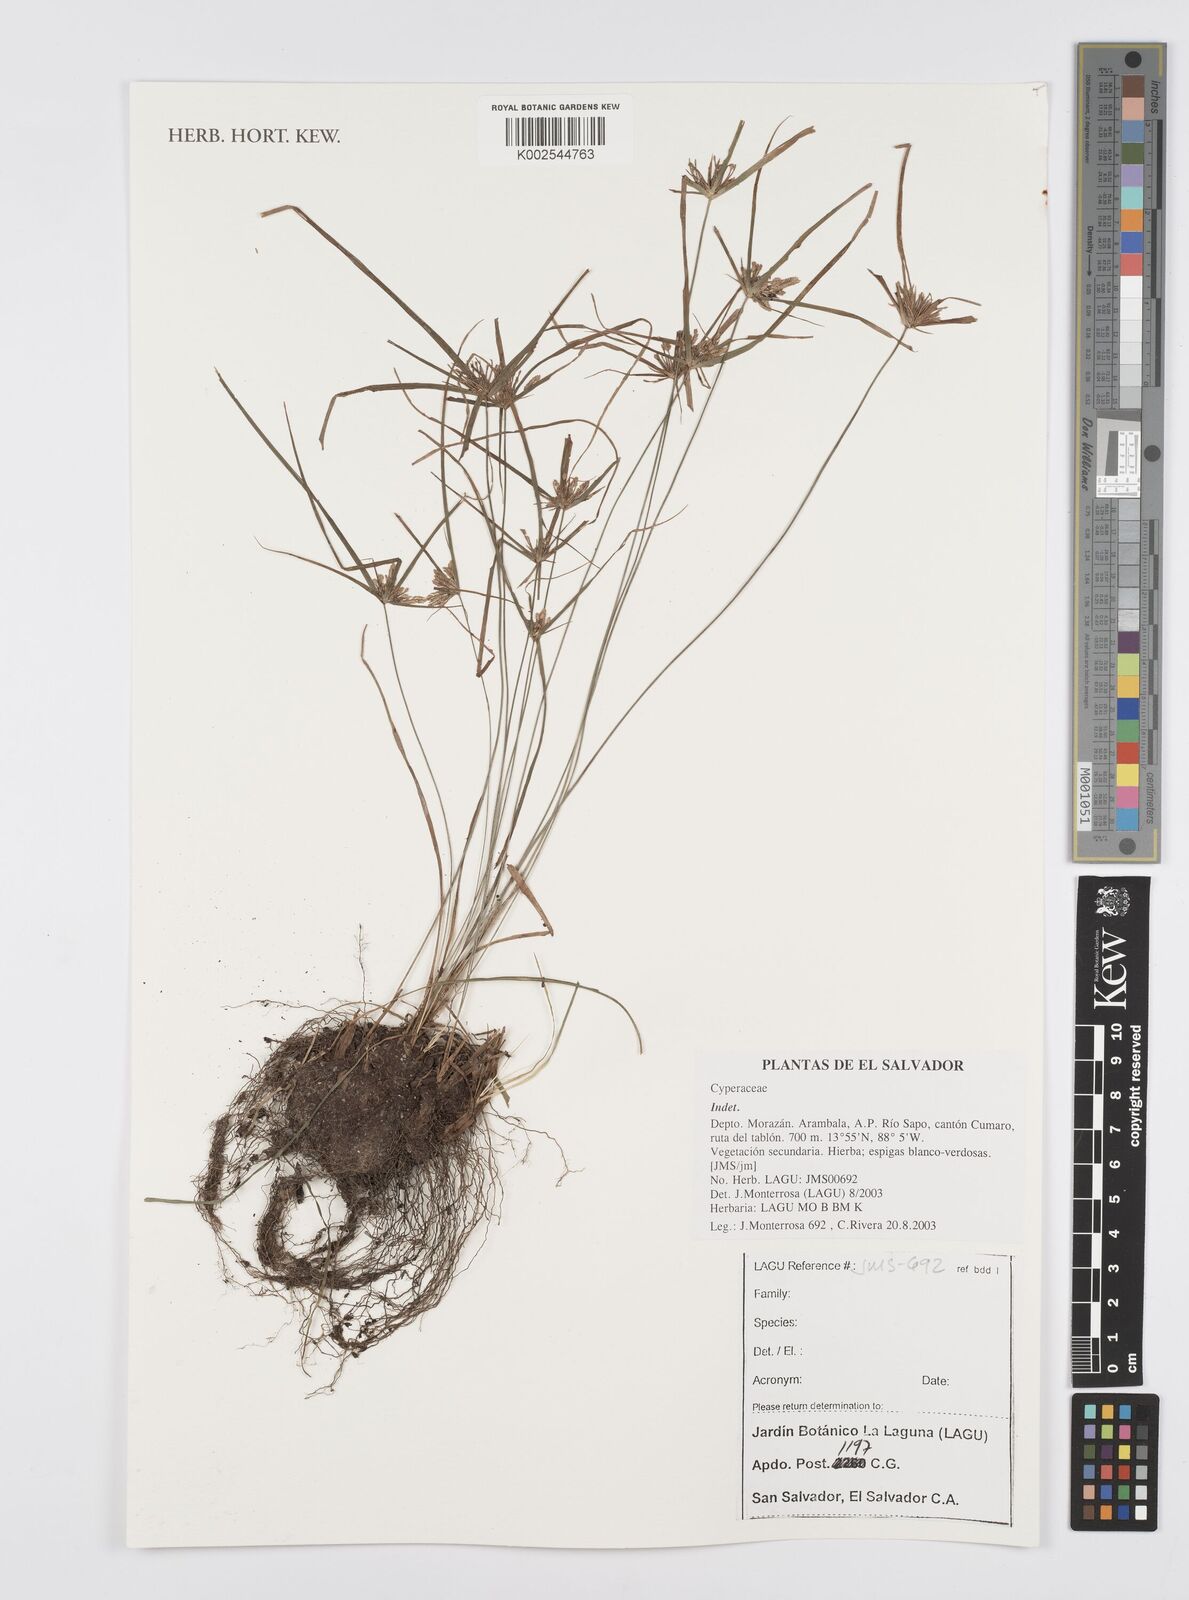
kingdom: Plantae
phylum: Tracheophyta
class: Liliopsida
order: Poales
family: Cyperaceae
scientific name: Cyperaceae
